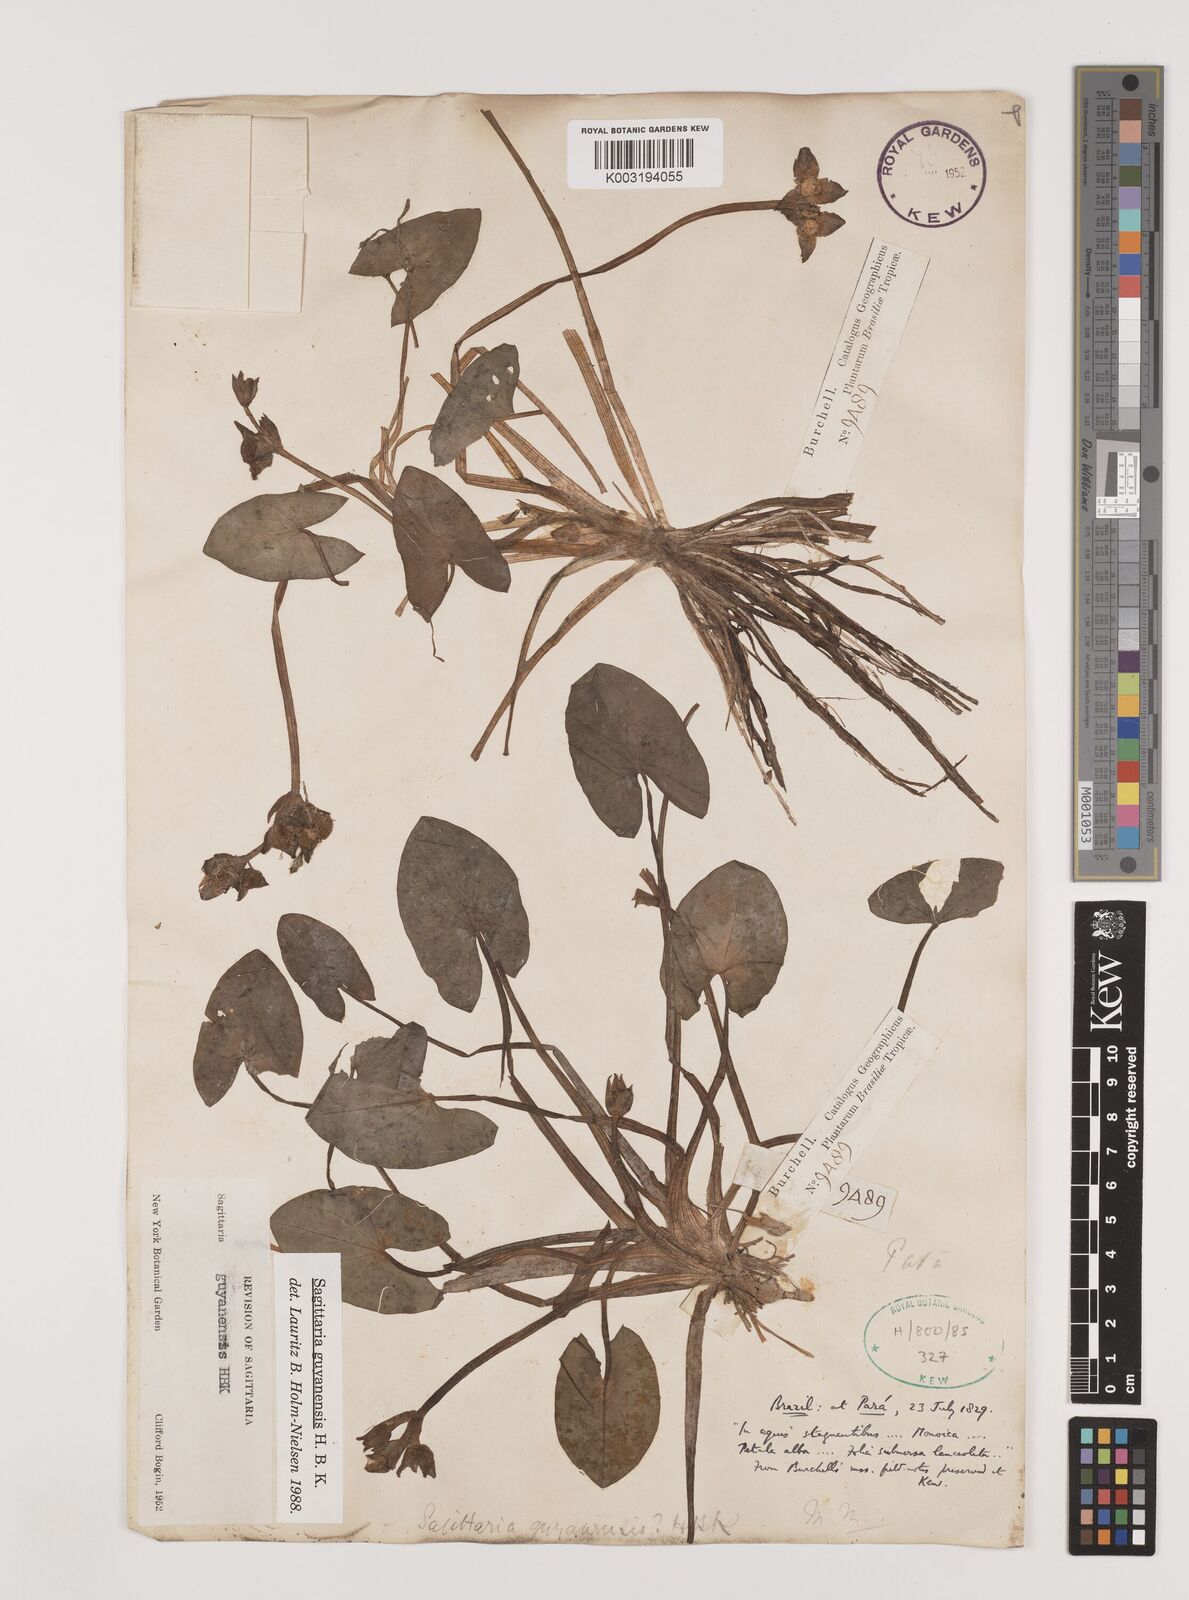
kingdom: Plantae
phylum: Tracheophyta
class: Liliopsida
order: Alismatales
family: Alismataceae
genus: Sagittaria
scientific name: Sagittaria guayanensis
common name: Guyanese arrowhead
